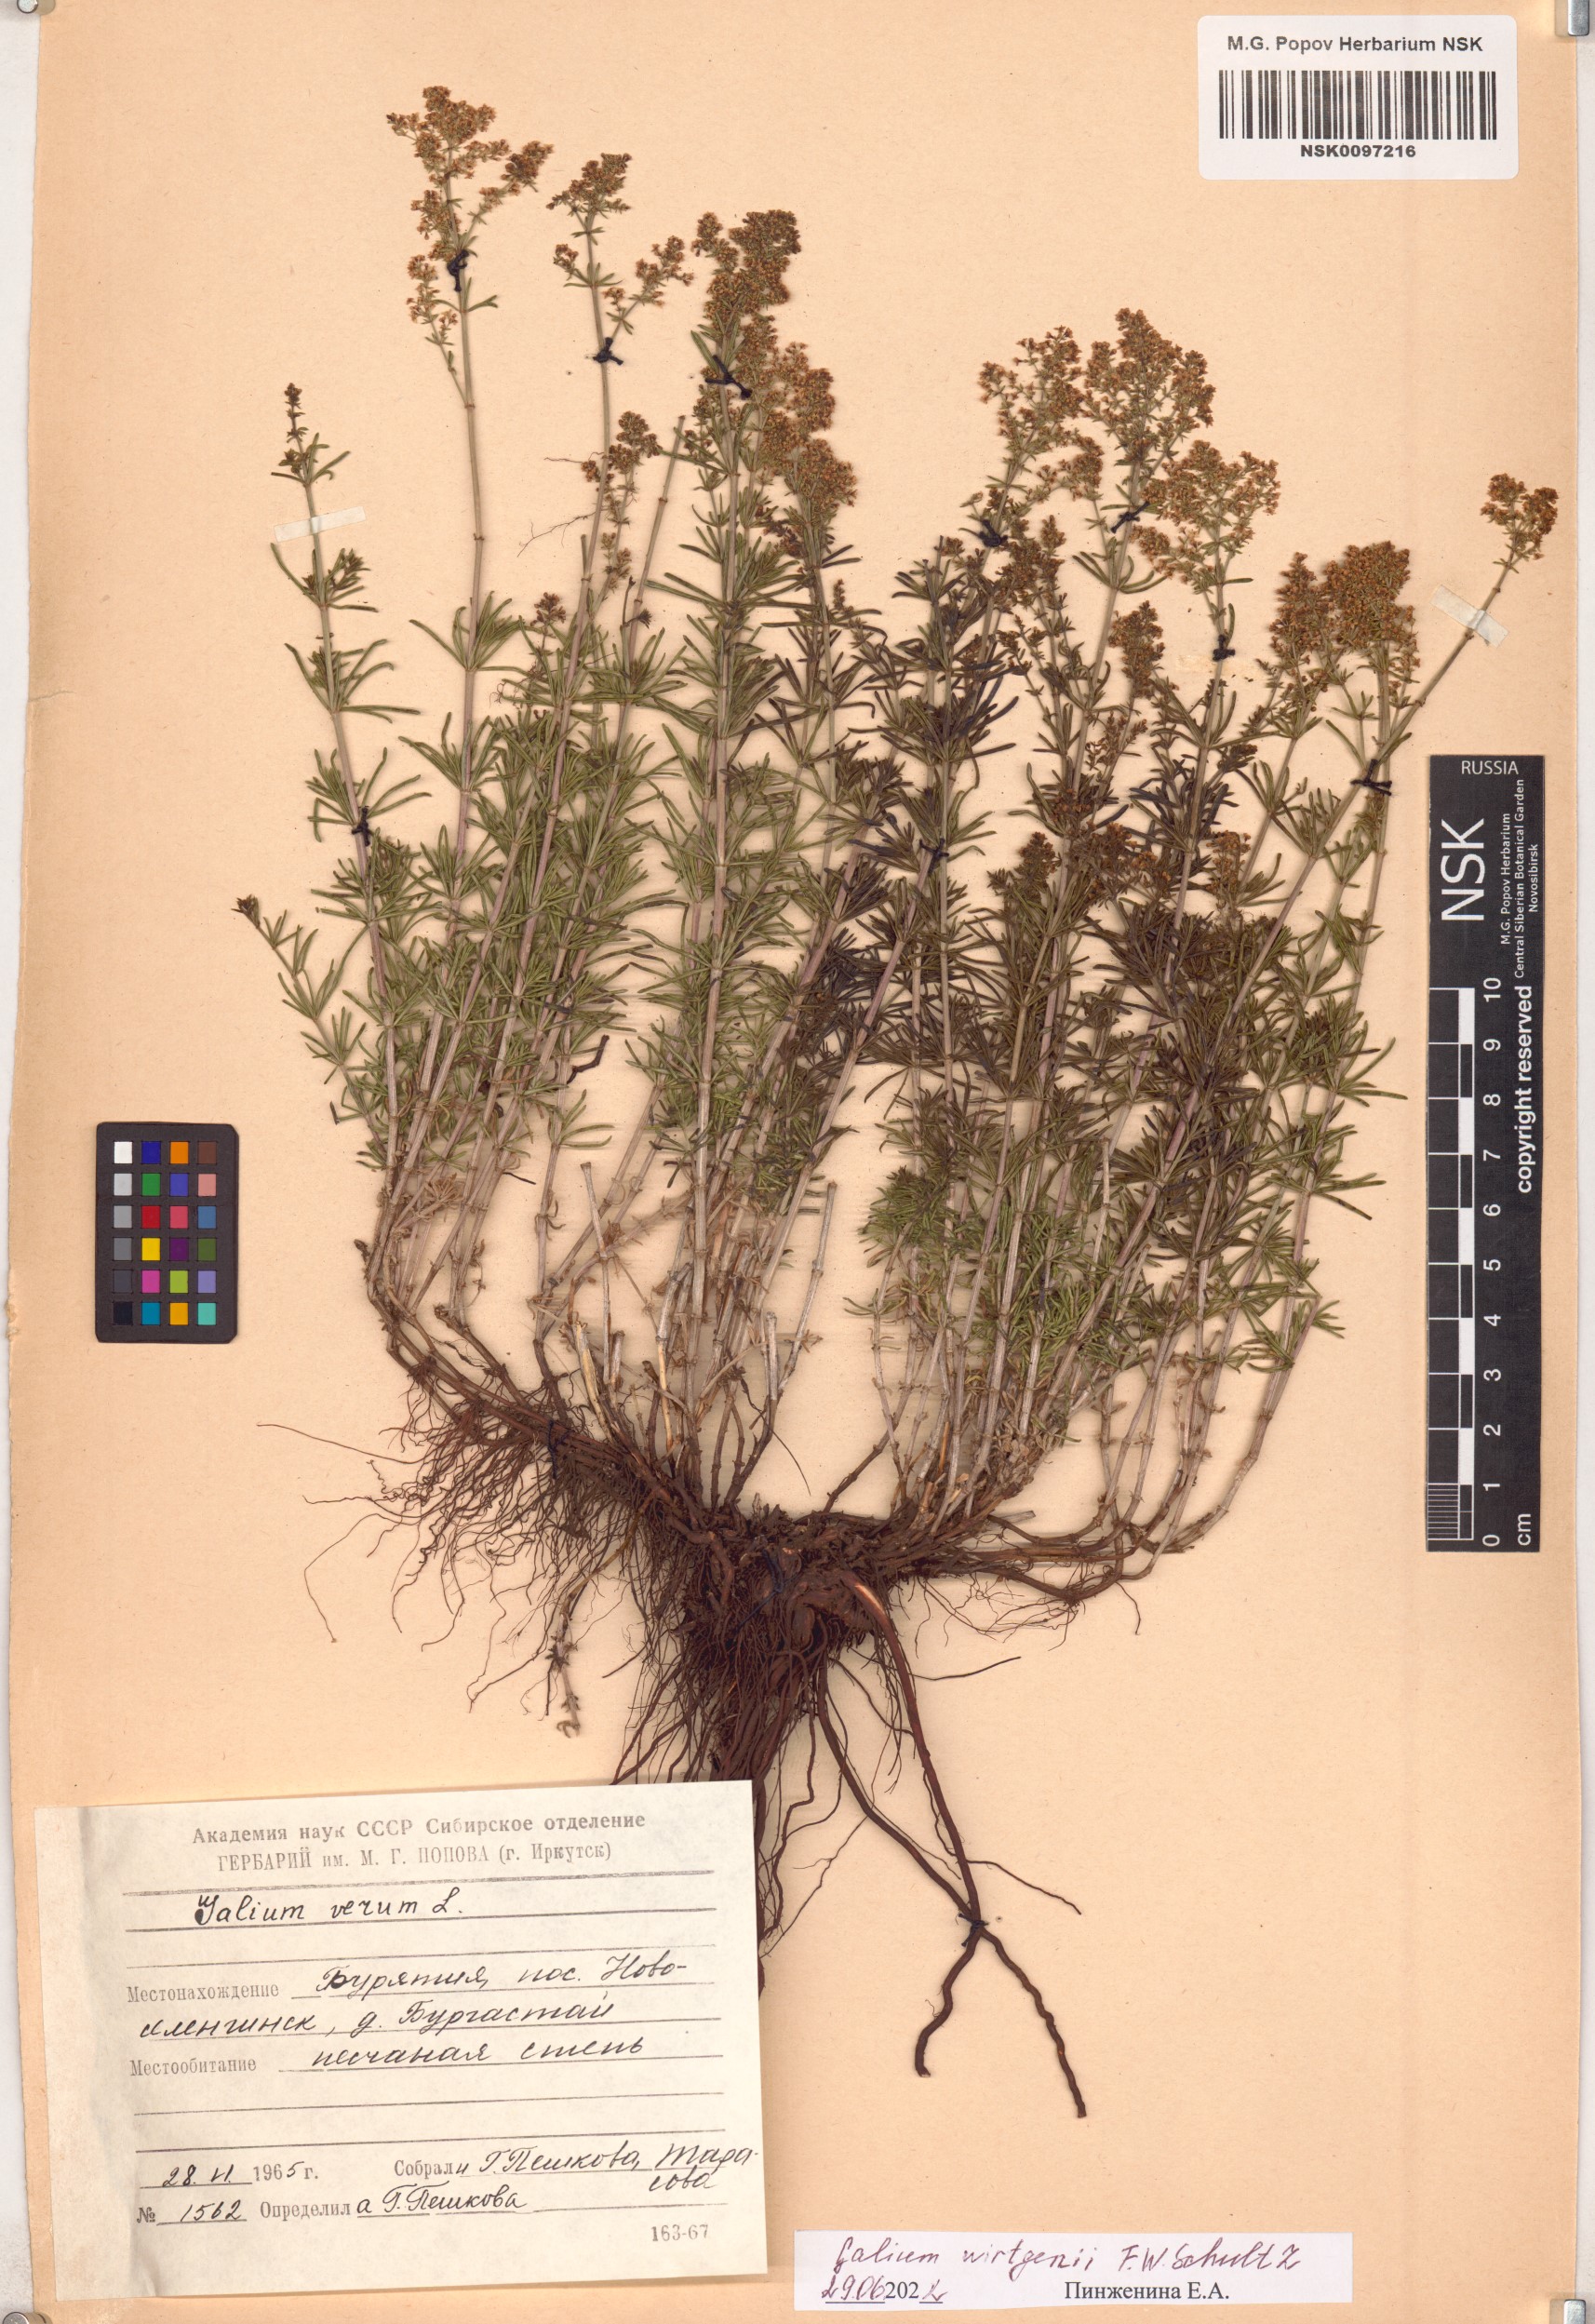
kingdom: Plantae
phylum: Tracheophyta
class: Magnoliopsida
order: Gentianales
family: Rubiaceae
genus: Galium
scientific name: Galium verum
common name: Lady's bedstraw
